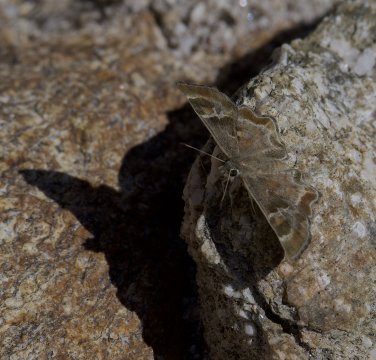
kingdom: Animalia
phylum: Arthropoda
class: Insecta
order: Lepidoptera
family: Hesperiidae
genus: Systasea
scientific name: Systasea zampa
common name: Arizona Powdered-Skipper
